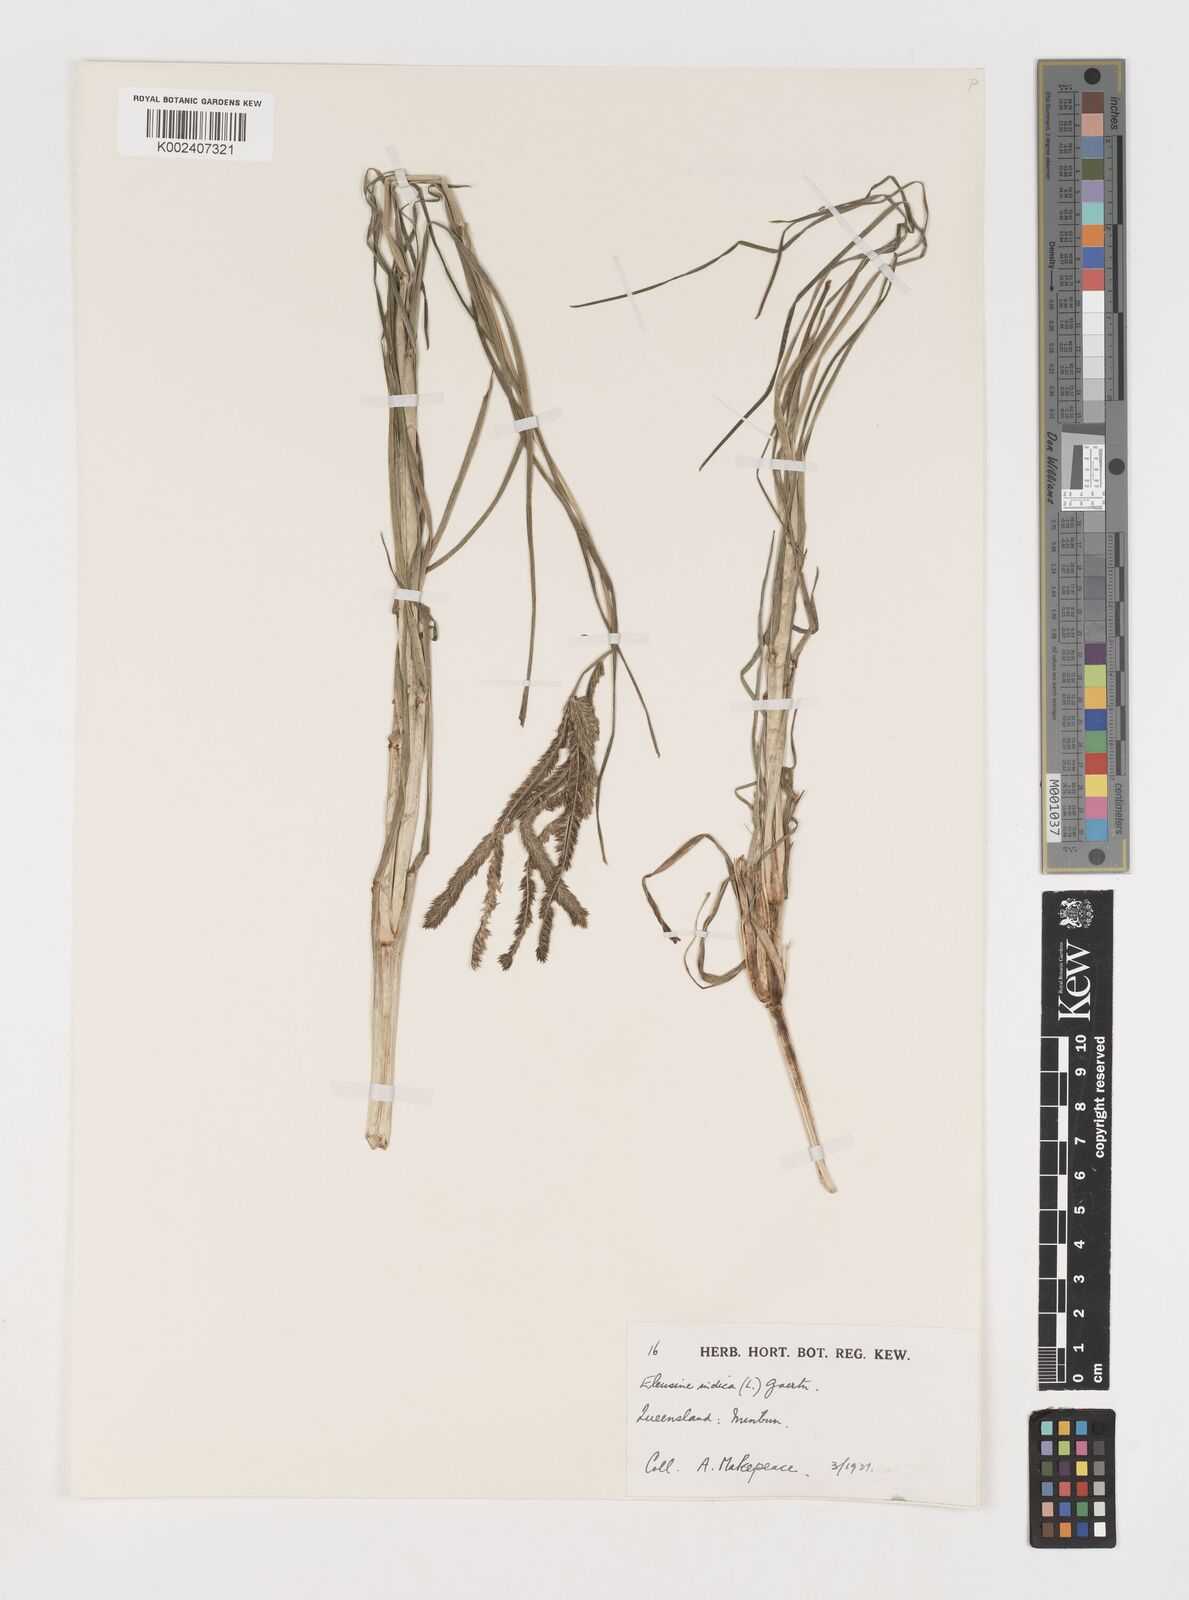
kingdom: Plantae
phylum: Tracheophyta
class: Liliopsida
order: Poales
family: Poaceae
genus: Eleusine
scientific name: Eleusine indica
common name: Yard-grass
